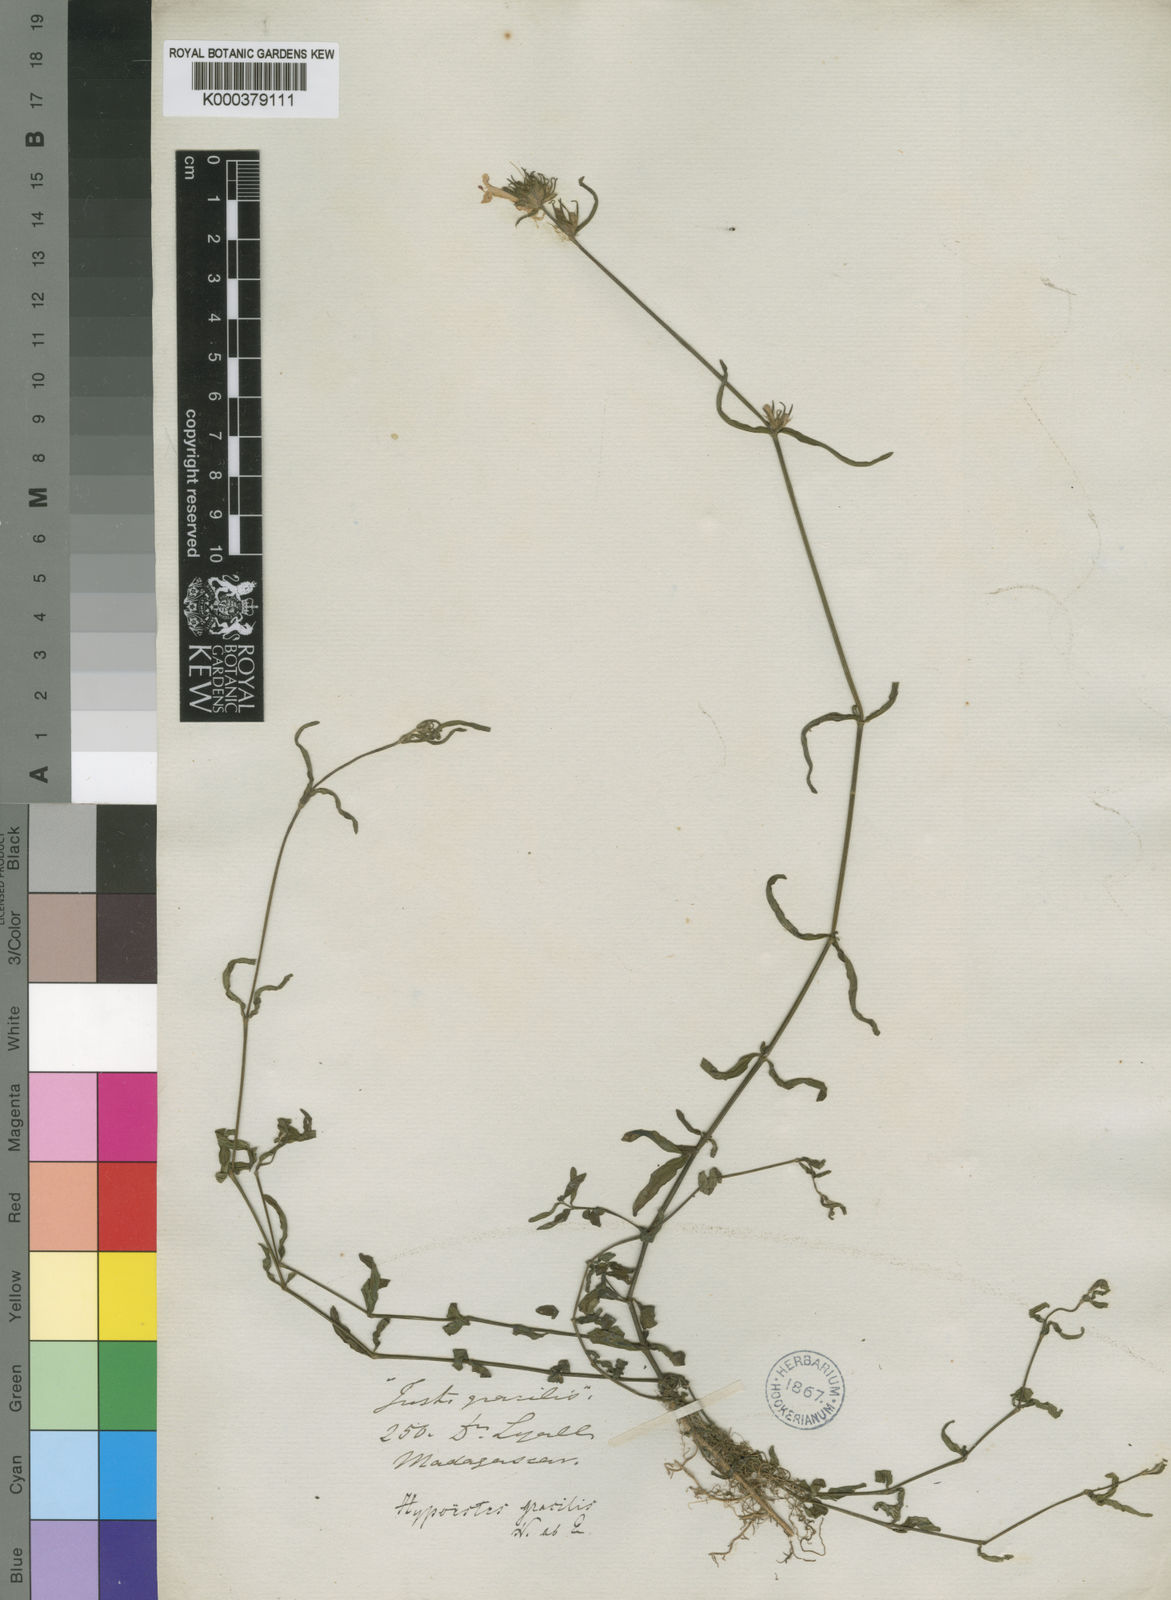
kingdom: Plantae
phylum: Tracheophyta
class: Magnoliopsida
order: Lamiales
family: Acanthaceae
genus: Hypoestes
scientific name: Hypoestes gracilis
